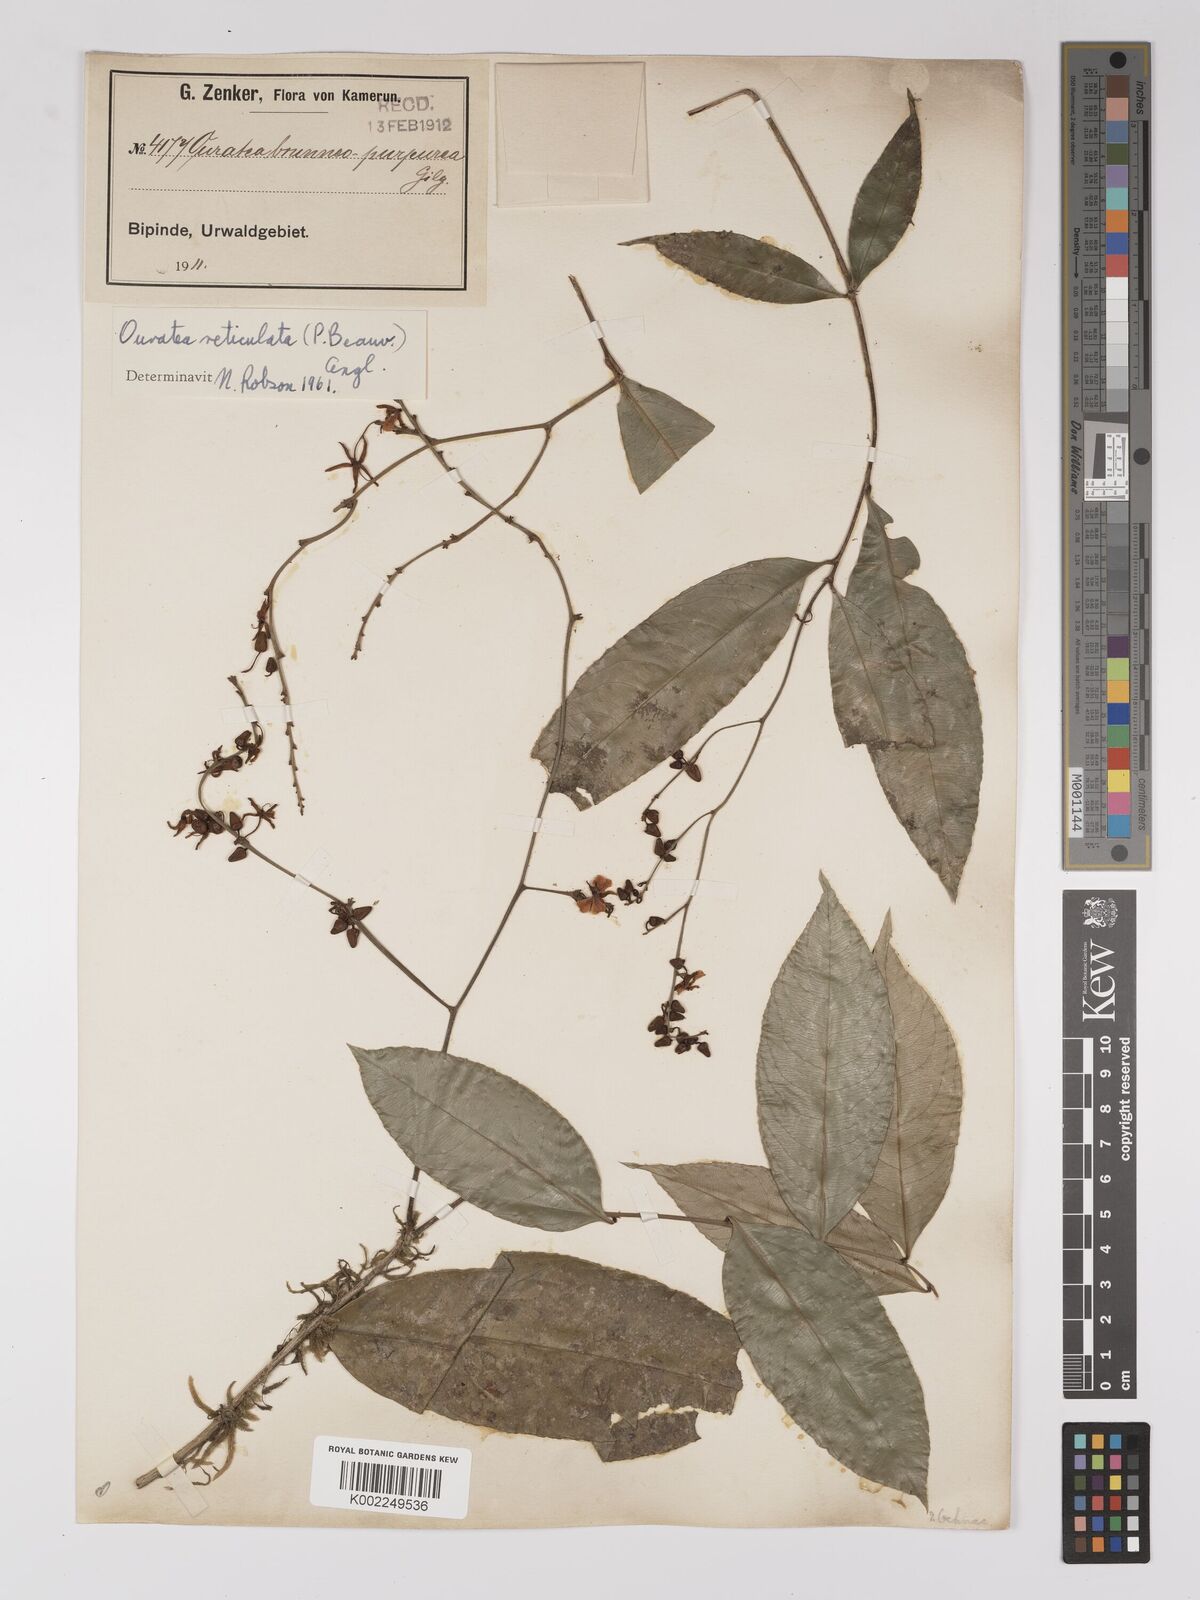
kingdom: Plantae
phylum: Tracheophyta
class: Magnoliopsida
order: Malpighiales
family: Ochnaceae
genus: Campylospermum
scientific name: Campylospermum reticulatum
